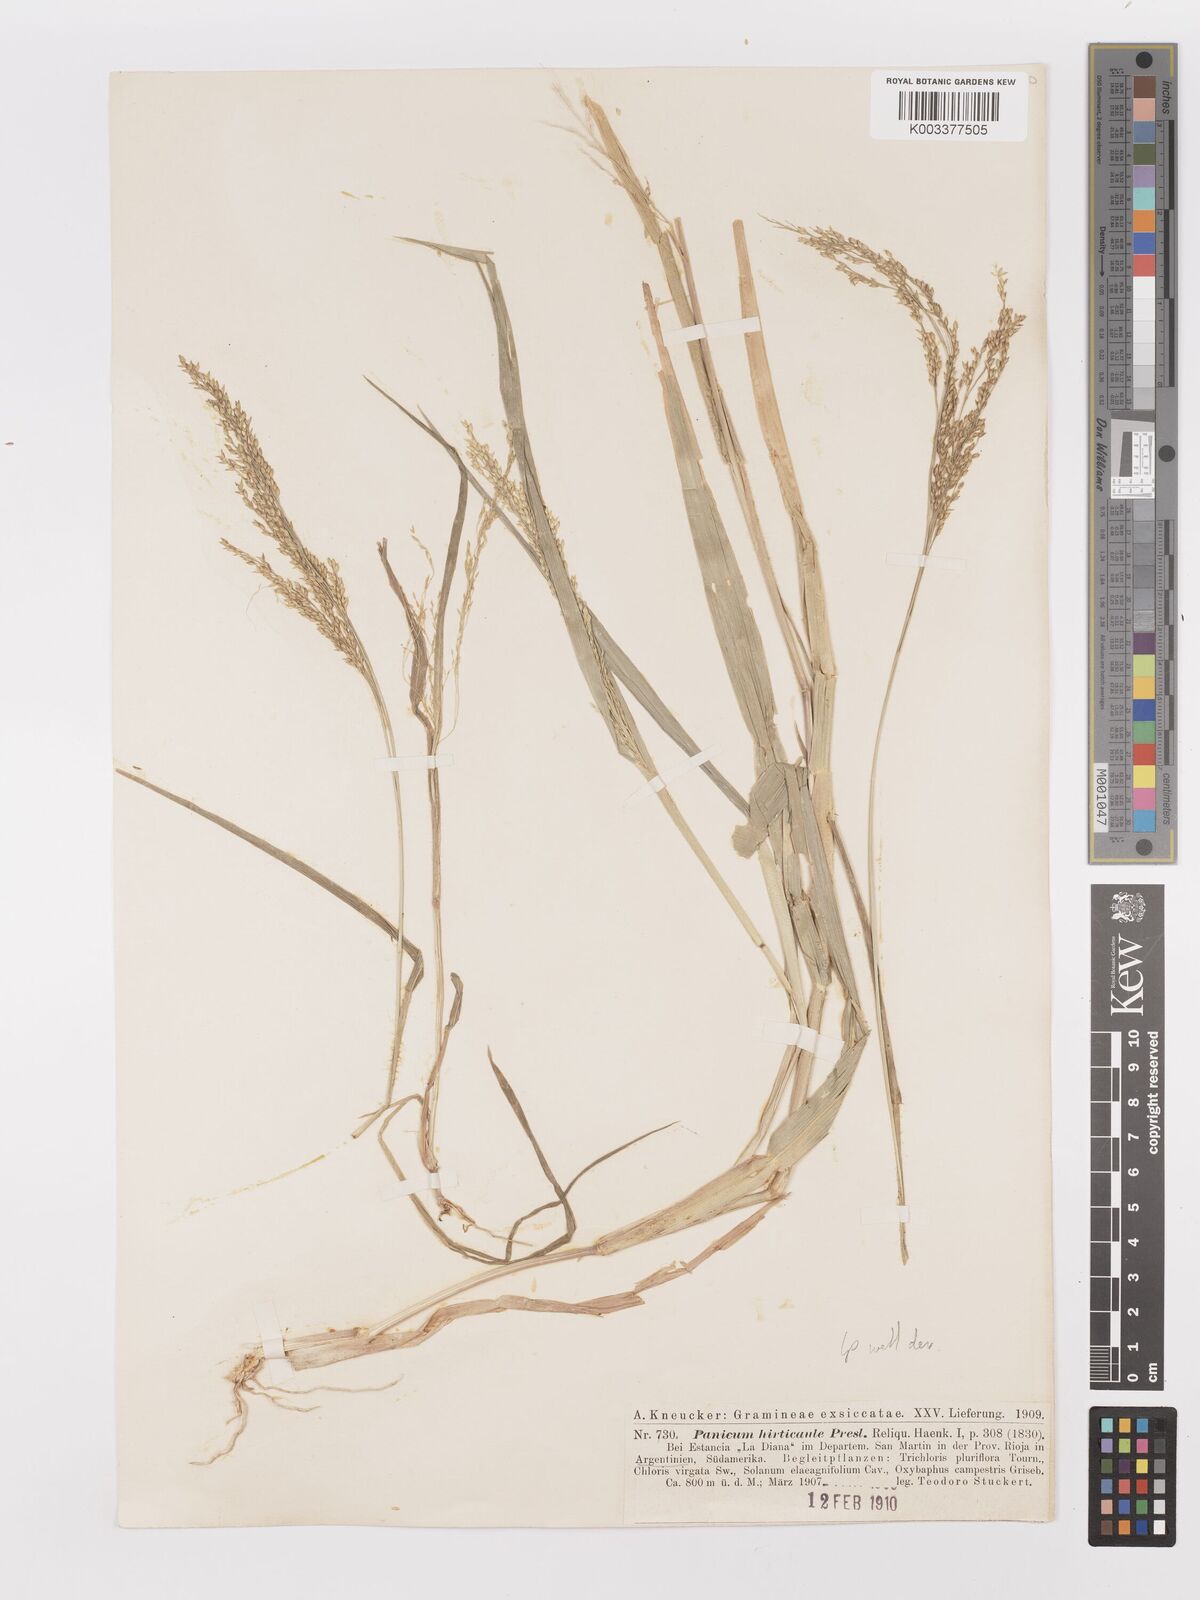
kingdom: Plantae
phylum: Tracheophyta
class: Liliopsida
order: Poales
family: Poaceae
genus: Panicum
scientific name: Panicum stramineum
